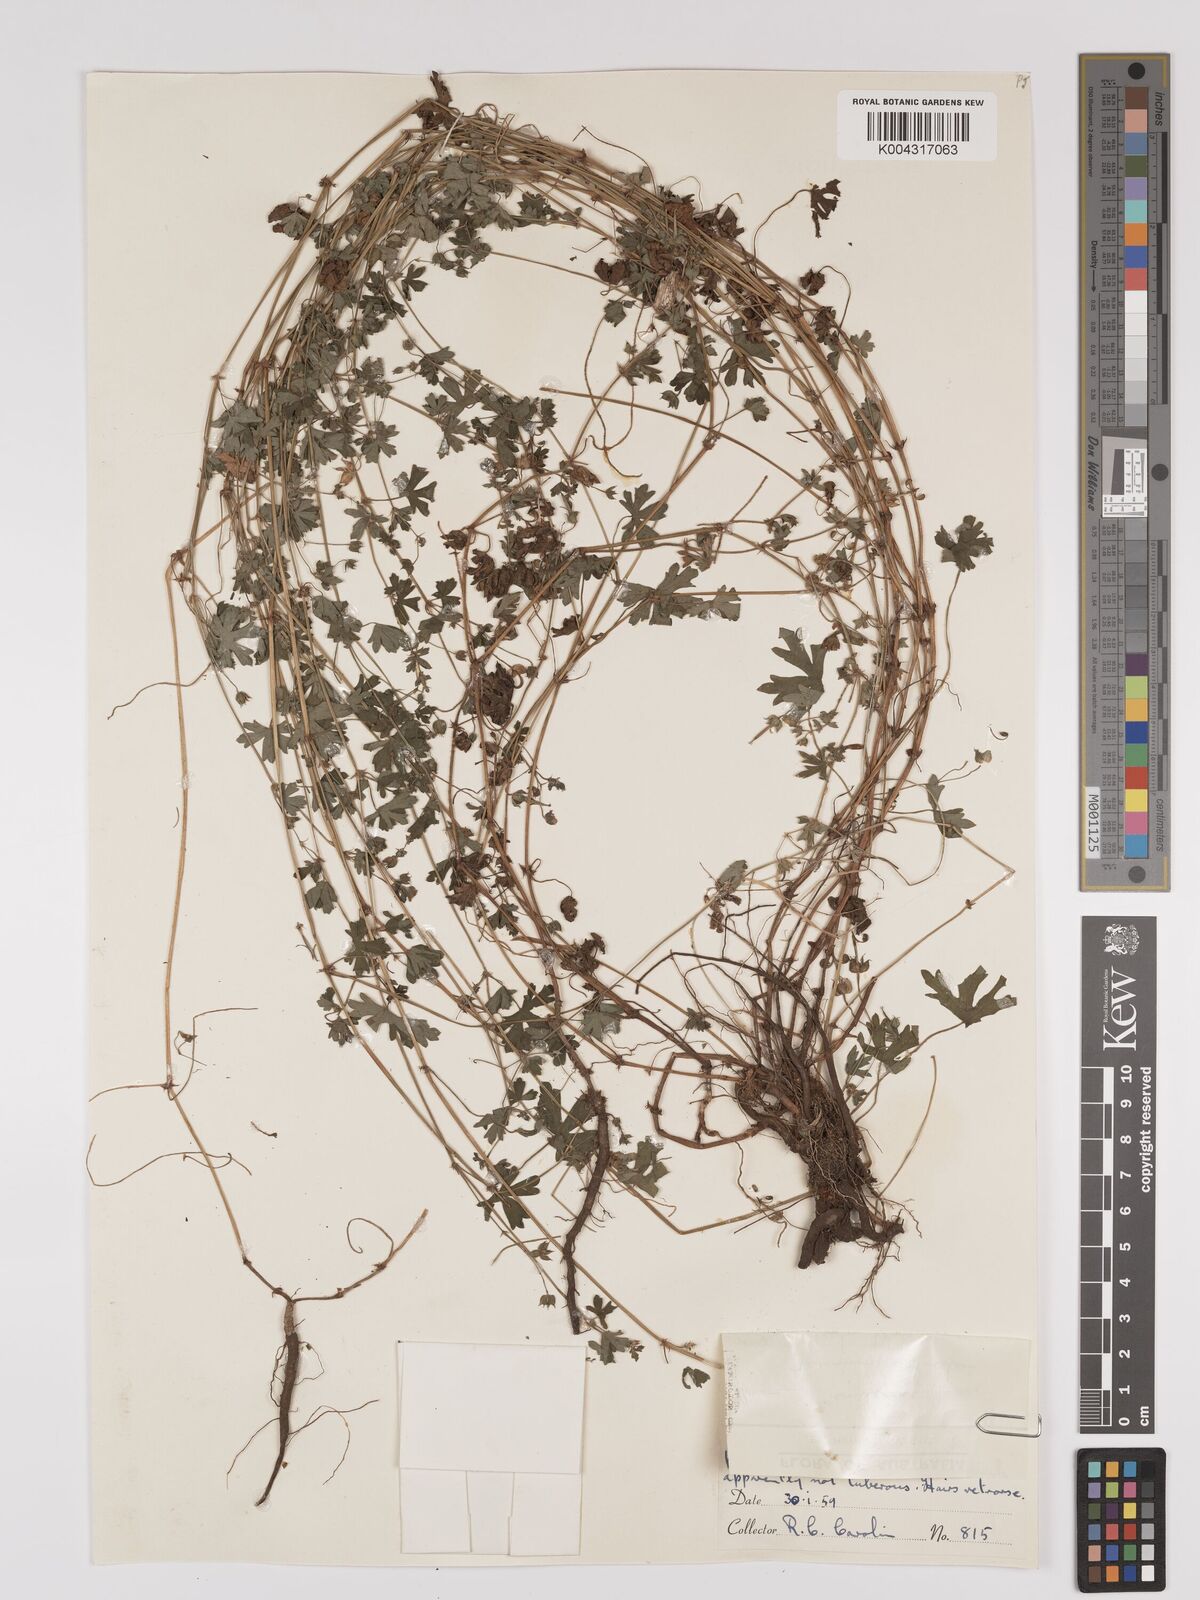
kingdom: Plantae
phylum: Tracheophyta
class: Magnoliopsida
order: Geraniales
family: Geraniaceae
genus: Geranium
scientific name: Geranium solanderi
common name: Solander's geranium
